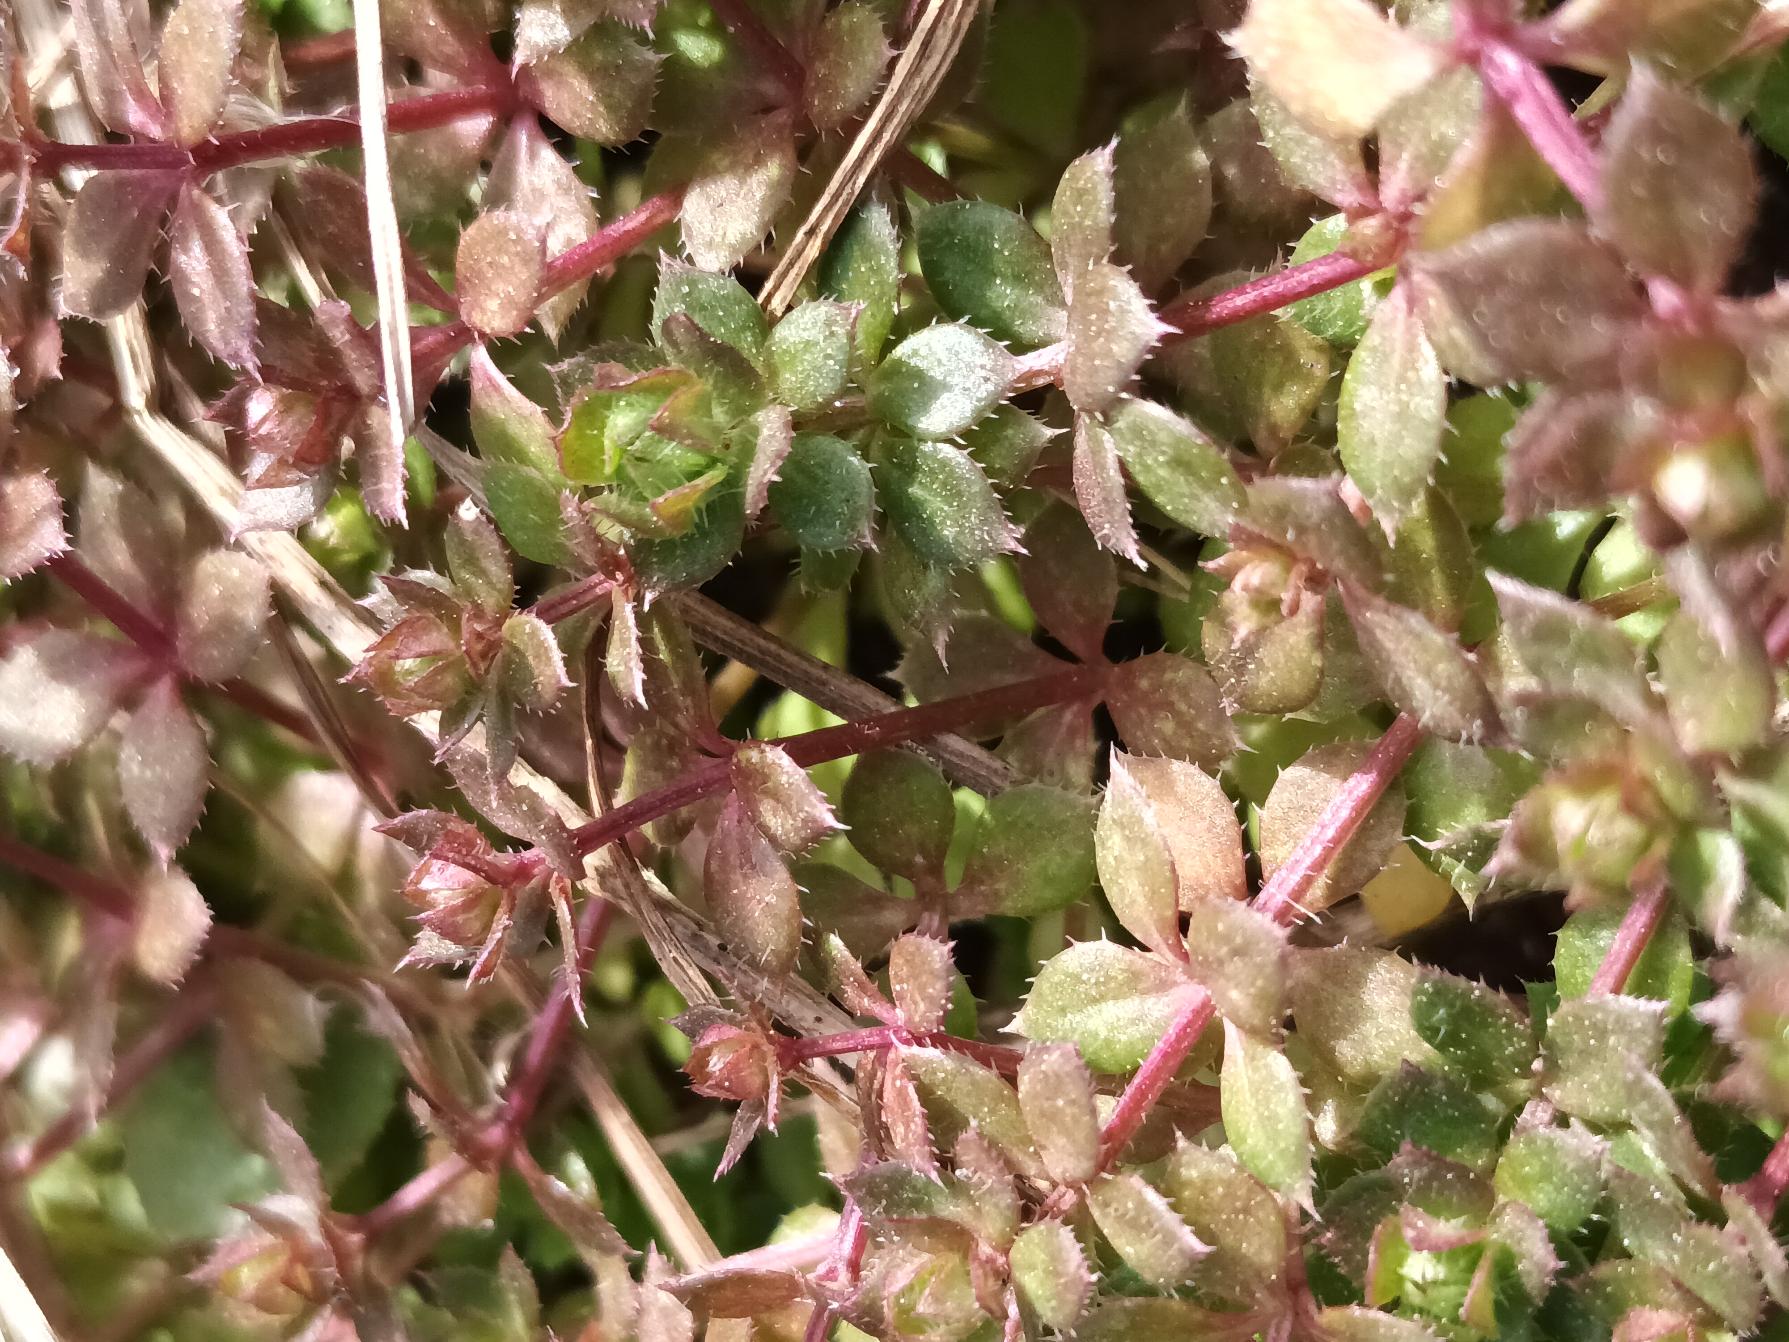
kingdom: Plantae
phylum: Tracheophyta
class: Magnoliopsida
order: Gentianales
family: Rubiaceae
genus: Sherardia
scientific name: Sherardia arvensis
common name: Blåstjerne
